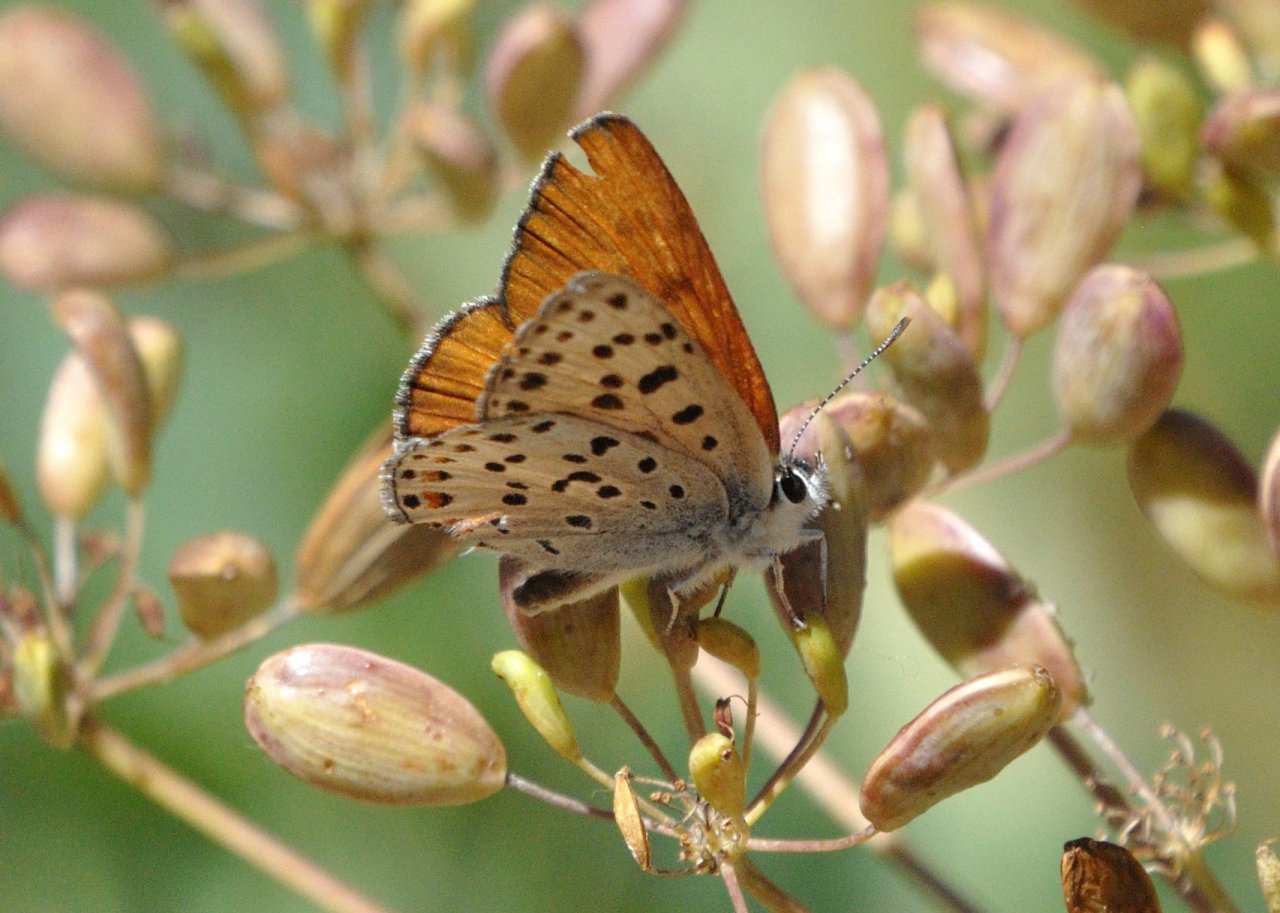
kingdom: Animalia
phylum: Arthropoda
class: Insecta
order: Lepidoptera
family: Lycaenidae
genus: Lycaena
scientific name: Lycaena gorgon
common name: Gorgon Copper
